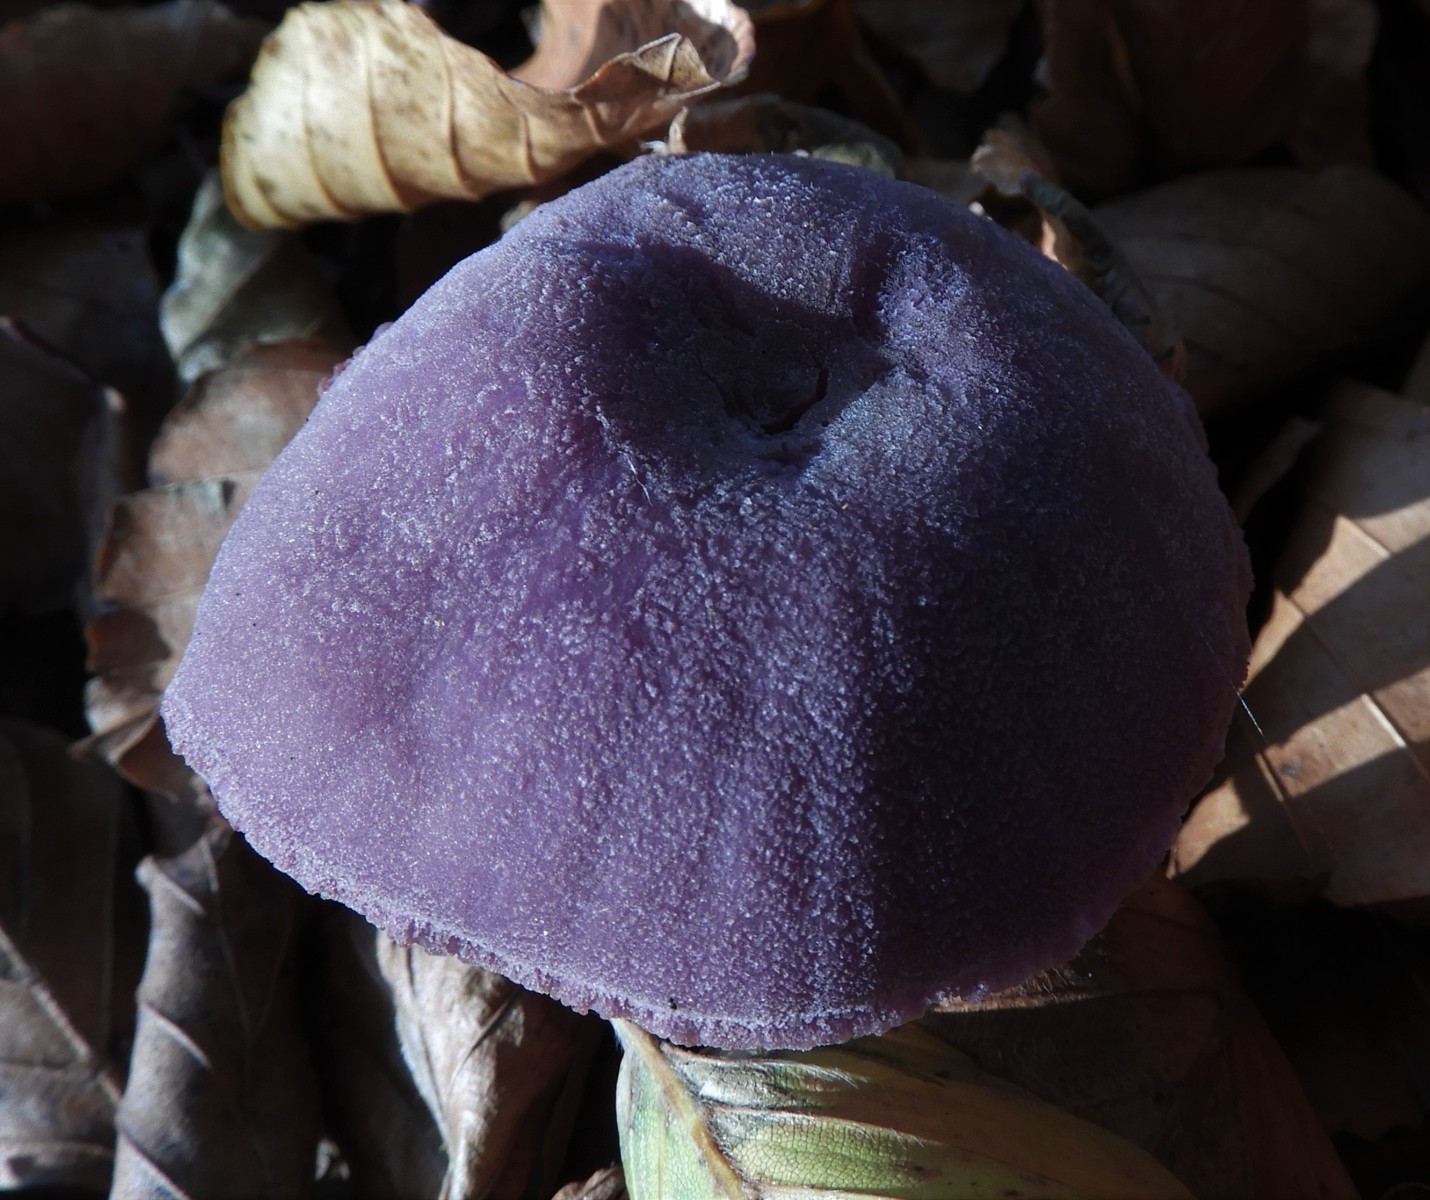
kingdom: Fungi
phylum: Basidiomycota
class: Agaricomycetes
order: Agaricales
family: Hydnangiaceae
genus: Laccaria
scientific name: Laccaria amethystina
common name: violet ametysthat
